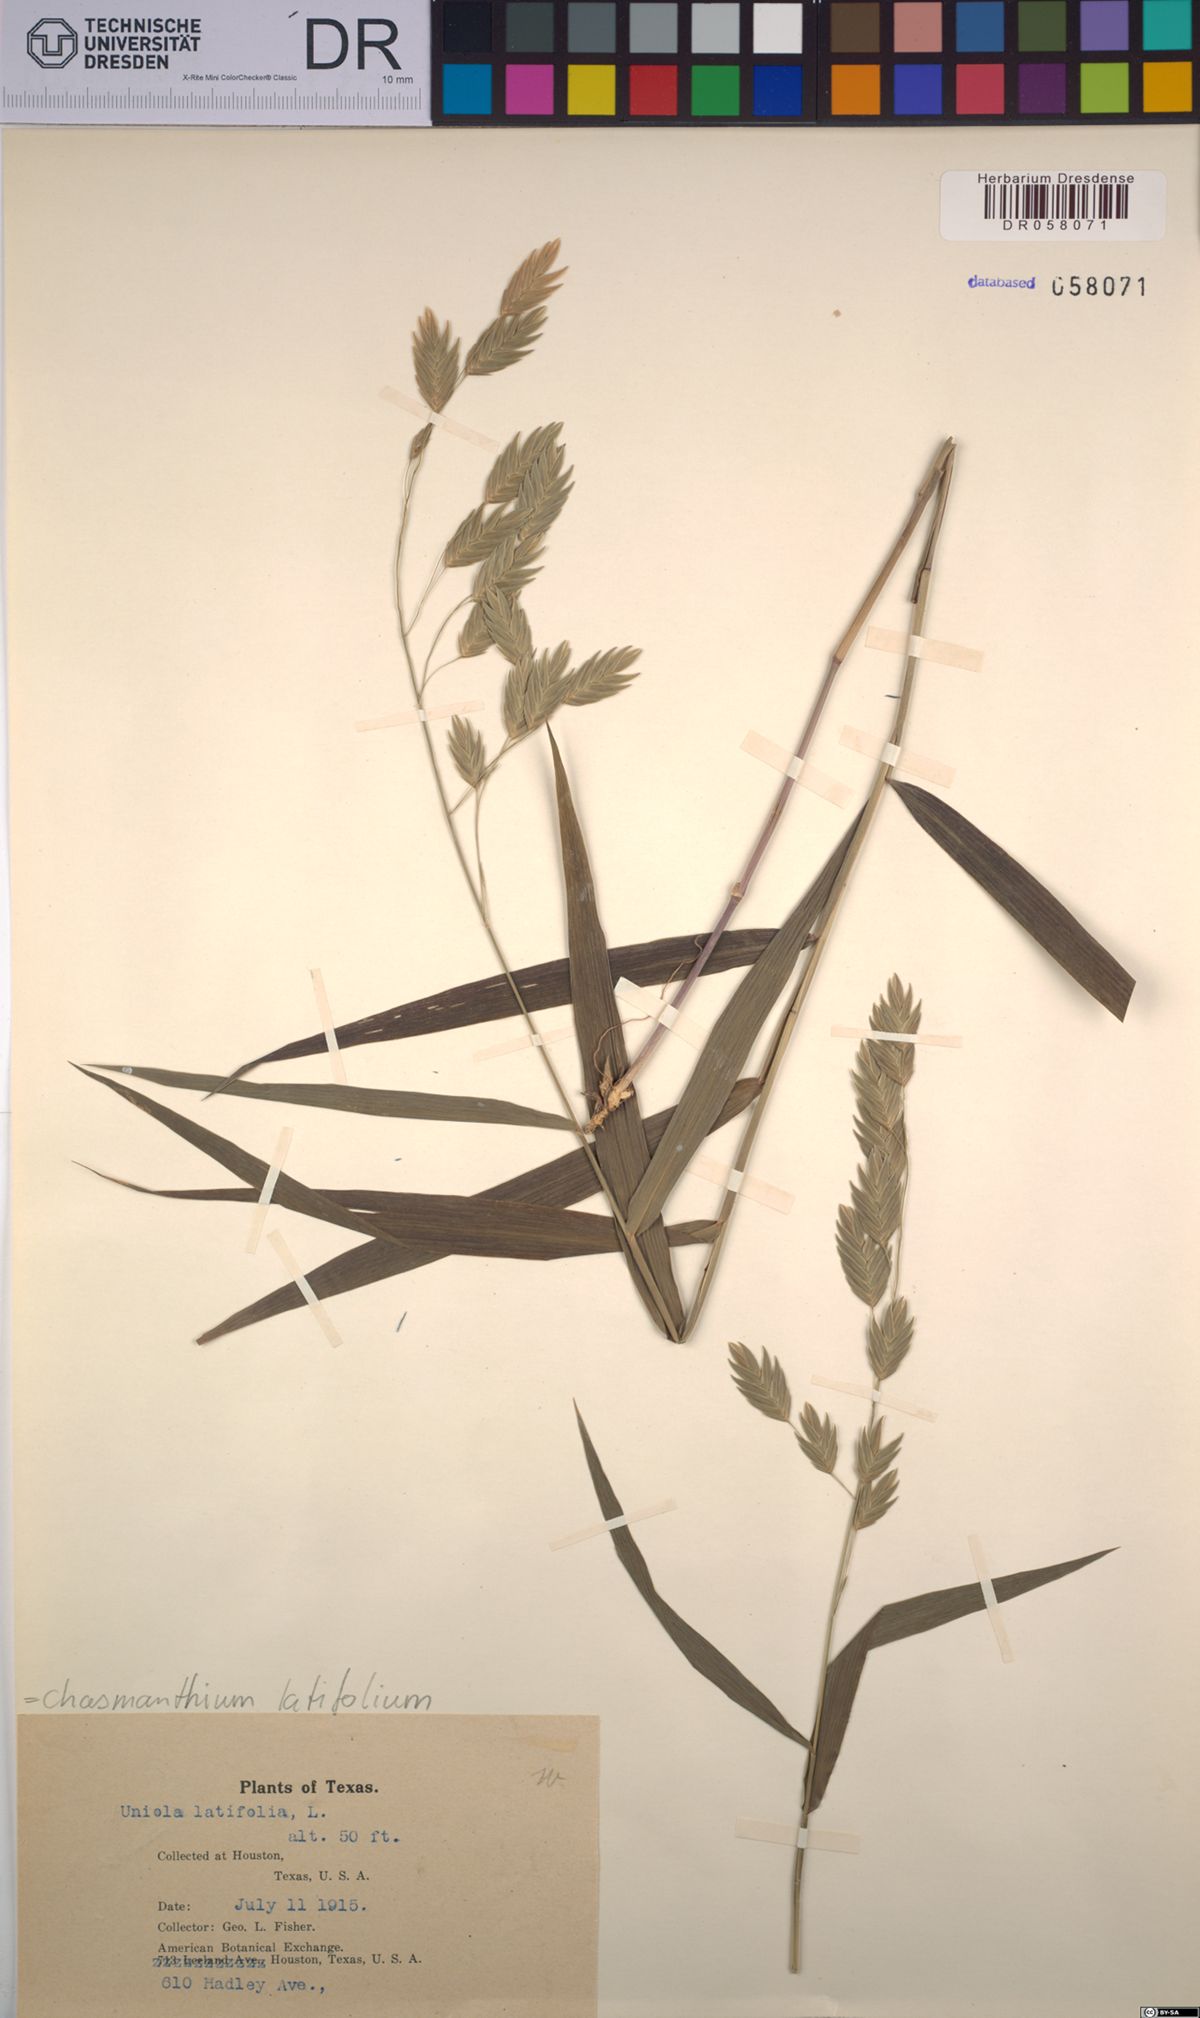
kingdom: Plantae
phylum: Tracheophyta
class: Liliopsida
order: Poales
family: Poaceae
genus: Chasmanthium
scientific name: Chasmanthium latifolium
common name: Broad-leaved chasmanthium
